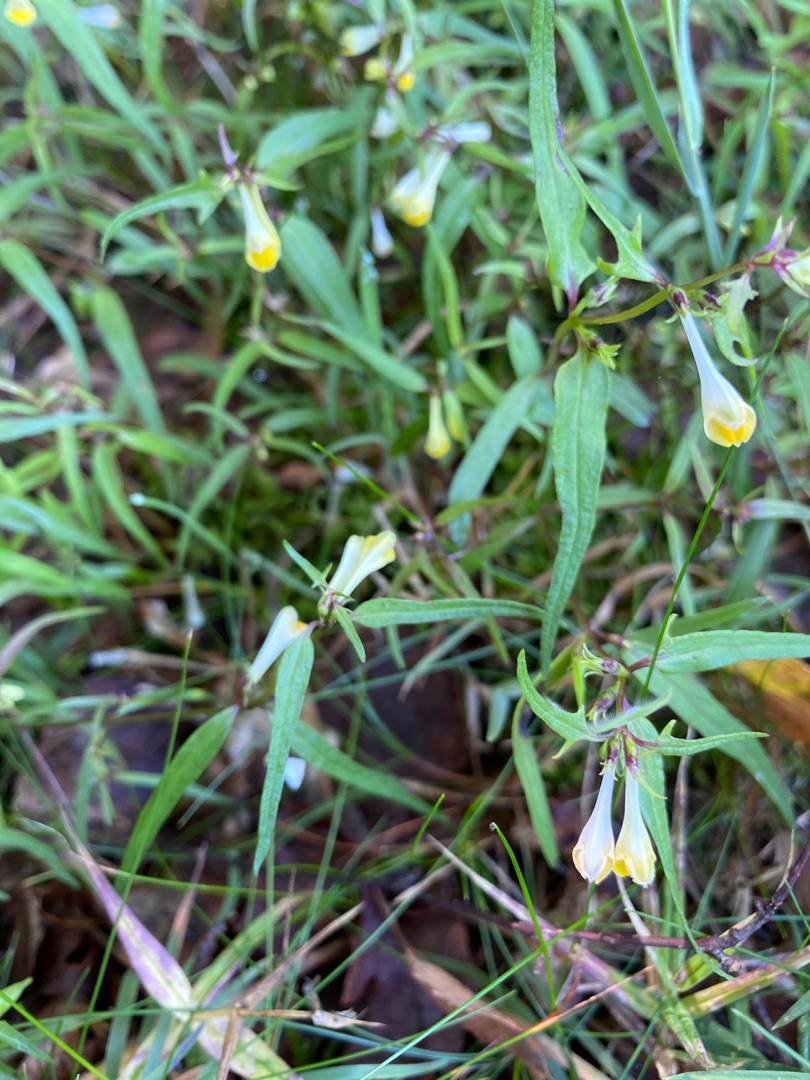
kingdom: Plantae
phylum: Tracheophyta
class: Magnoliopsida
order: Lamiales
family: Orobanchaceae
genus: Melampyrum
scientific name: Melampyrum pratense
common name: Almindelig kohvede
